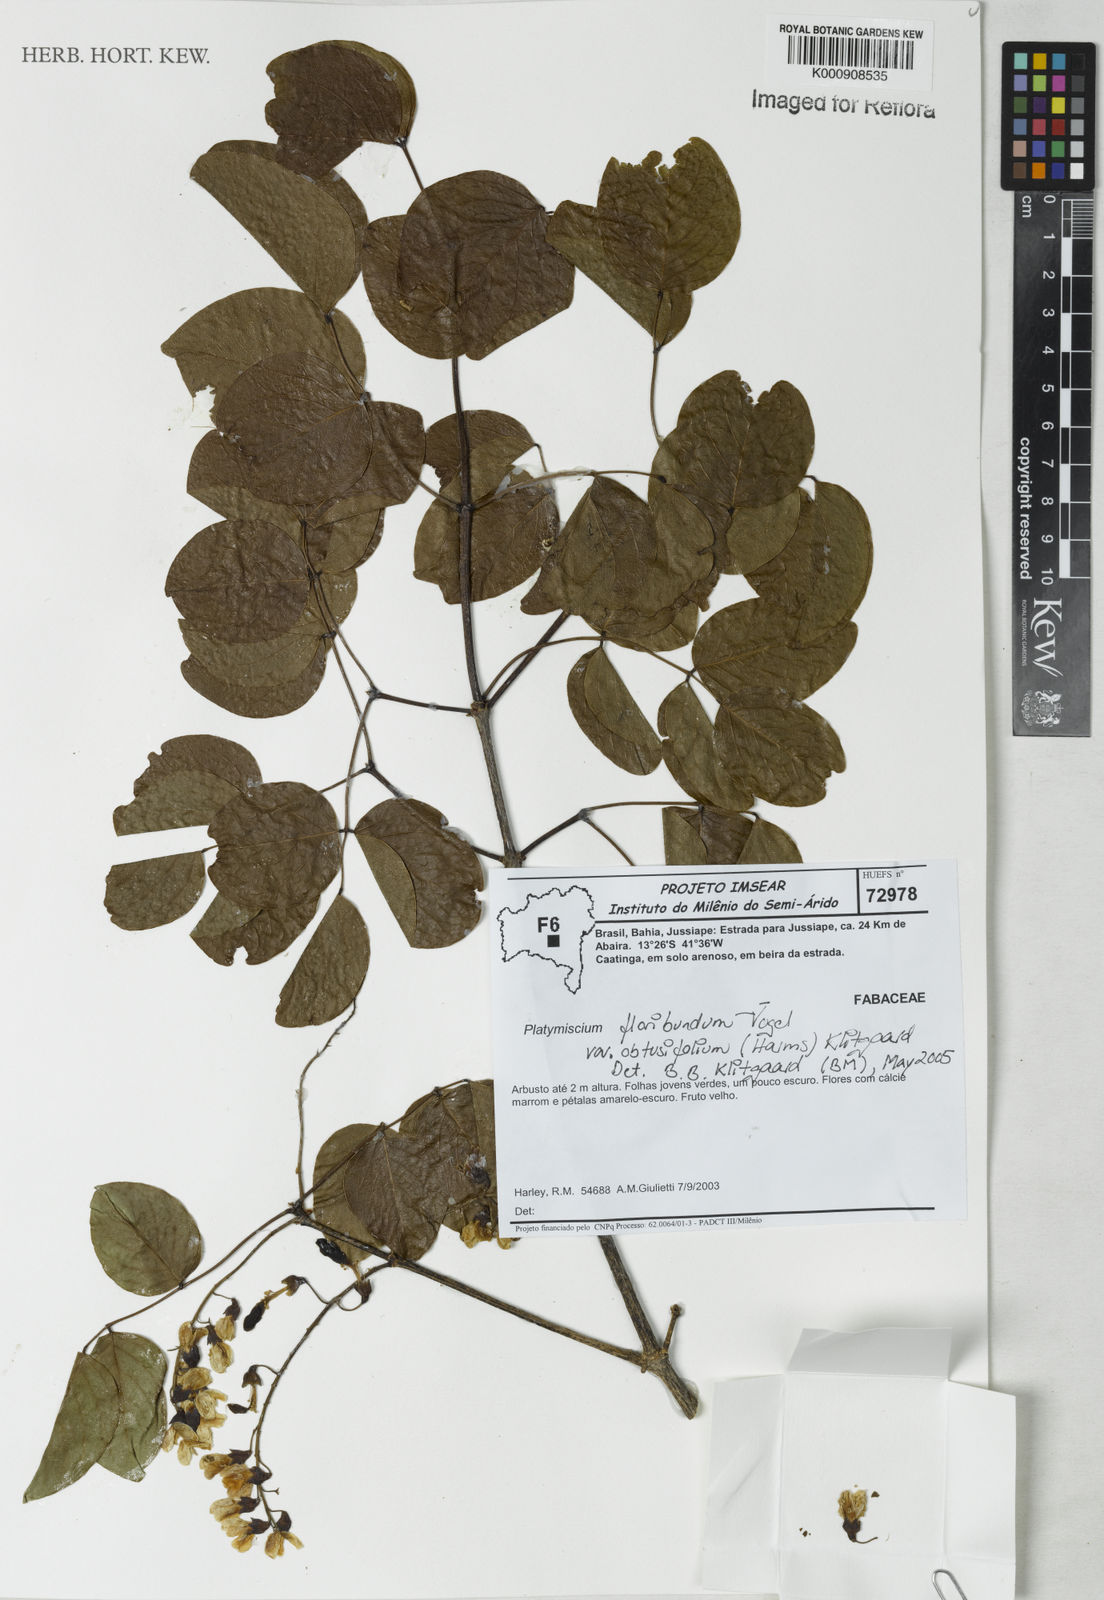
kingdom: Plantae
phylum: Tracheophyta
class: Magnoliopsida
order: Fabales
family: Fabaceae
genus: Platymiscium
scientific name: Platymiscium floribundum
